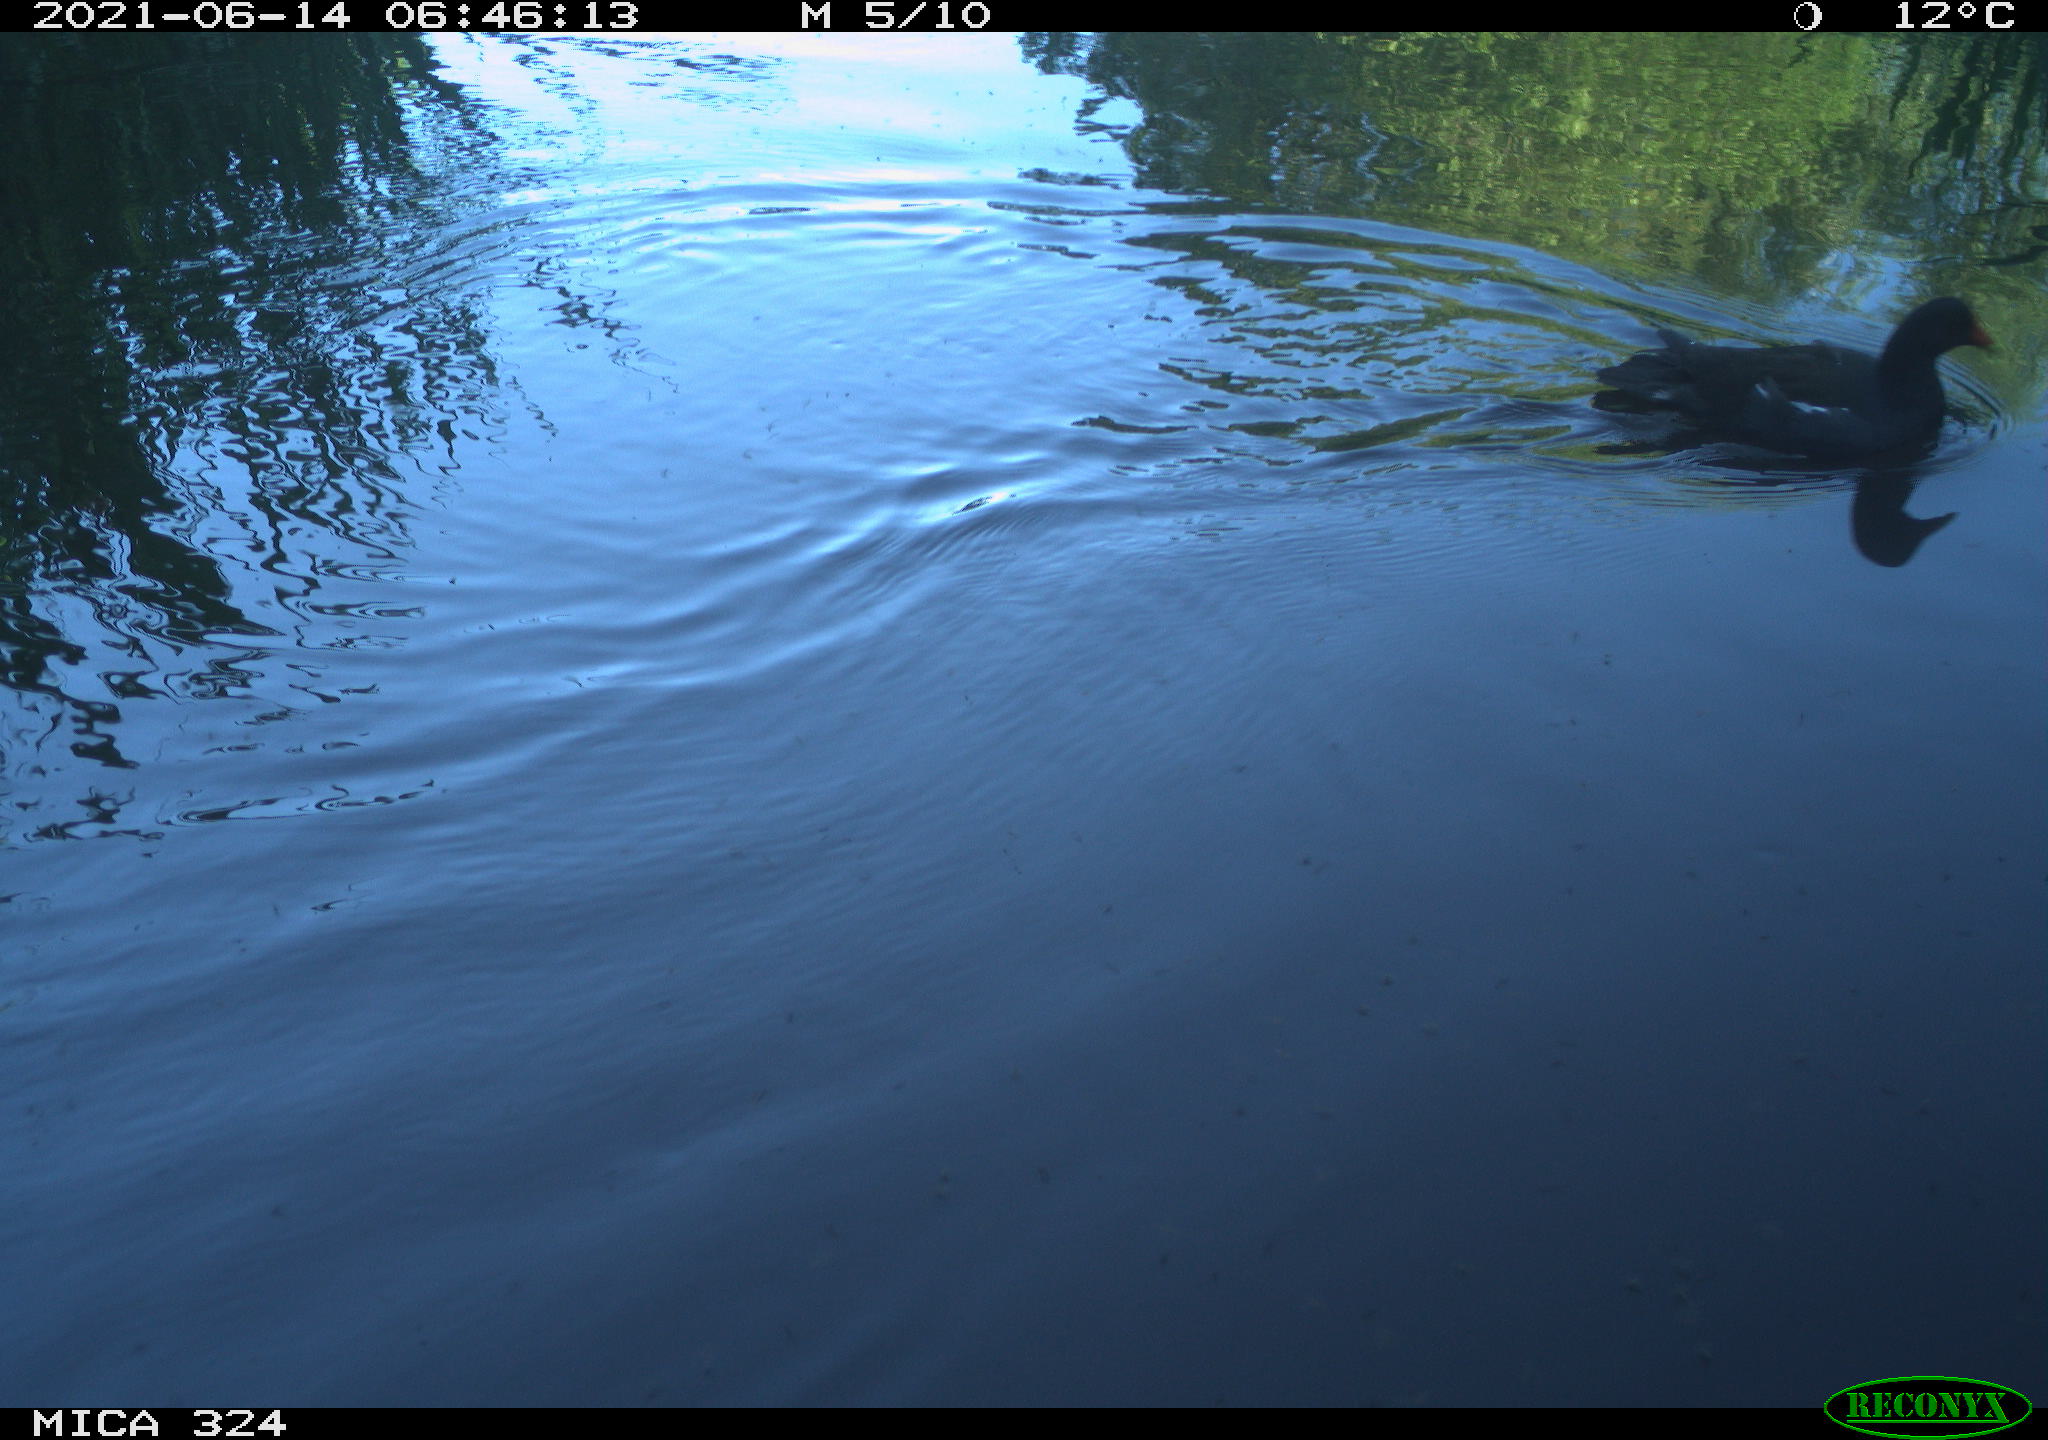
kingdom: Animalia
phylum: Chordata
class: Aves
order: Gruiformes
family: Rallidae
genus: Gallinula
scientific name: Gallinula chloropus
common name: Common moorhen
